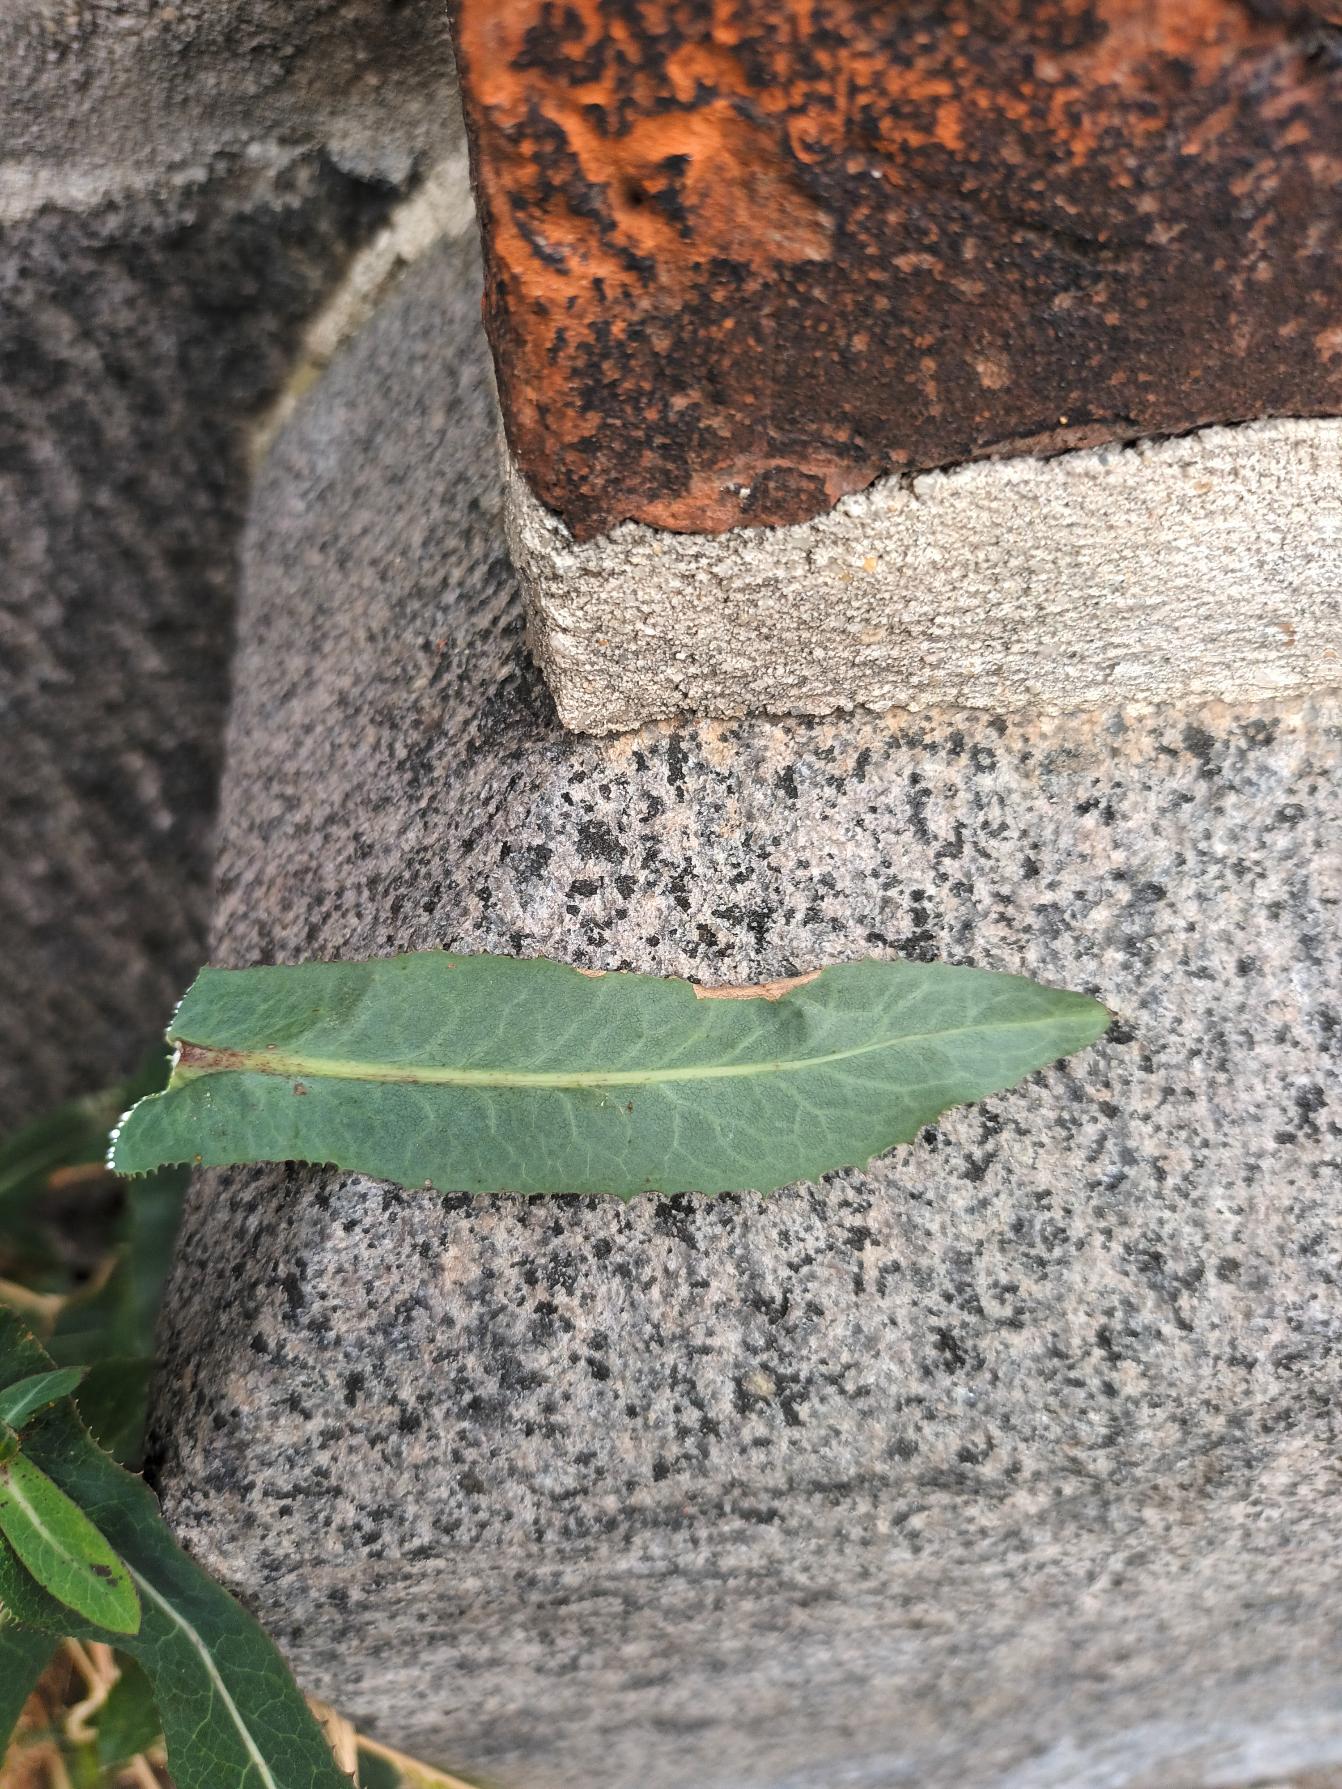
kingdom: Plantae
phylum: Tracheophyta
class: Magnoliopsida
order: Asterales
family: Asteraceae
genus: Lactuca
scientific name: Lactuca virosa
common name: Gift-salat
